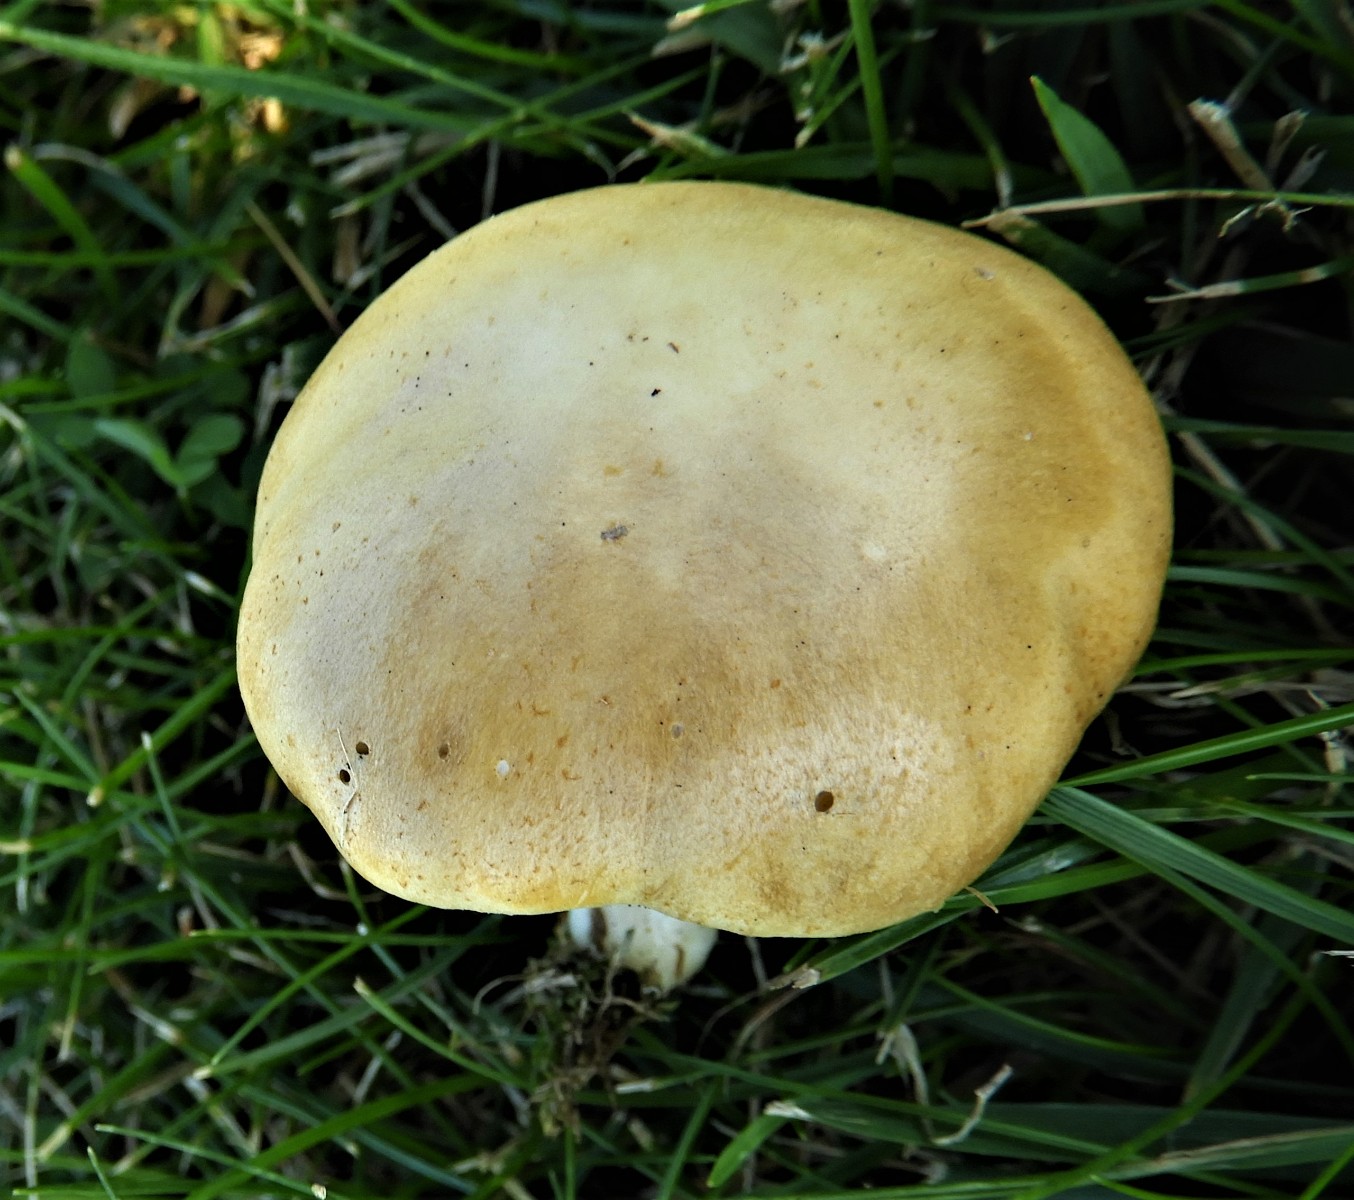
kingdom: Fungi
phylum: Basidiomycota
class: Agaricomycetes
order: Agaricales
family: Hymenogastraceae
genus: Psilocybe
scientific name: Psilocybe coronilla
